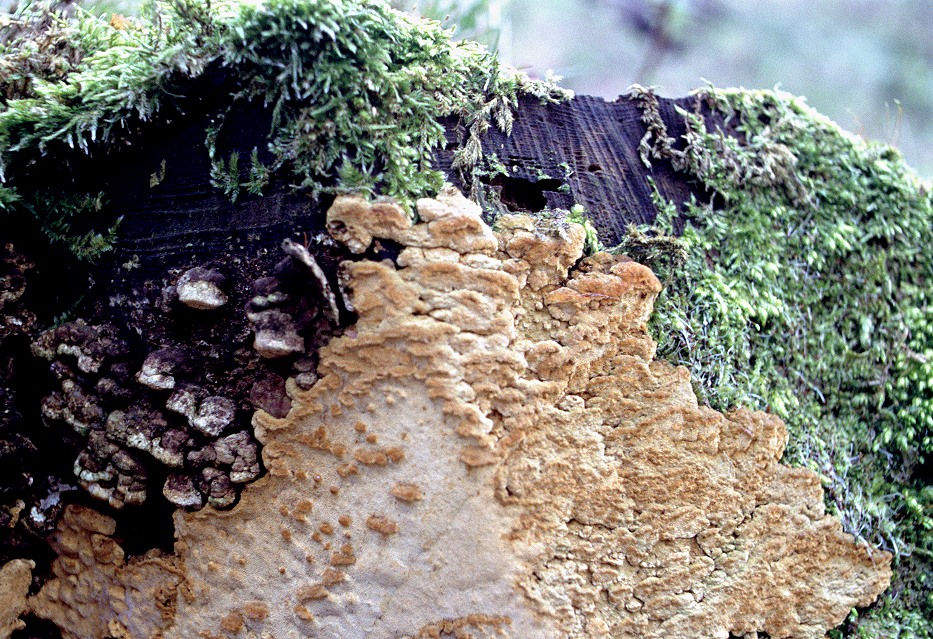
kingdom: Fungi
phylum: Basidiomycota
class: Agaricomycetes
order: Polyporales
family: Fomitopsidaceae
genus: Neoantrodia
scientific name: Neoantrodia serialis
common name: række-sejporesvamp
